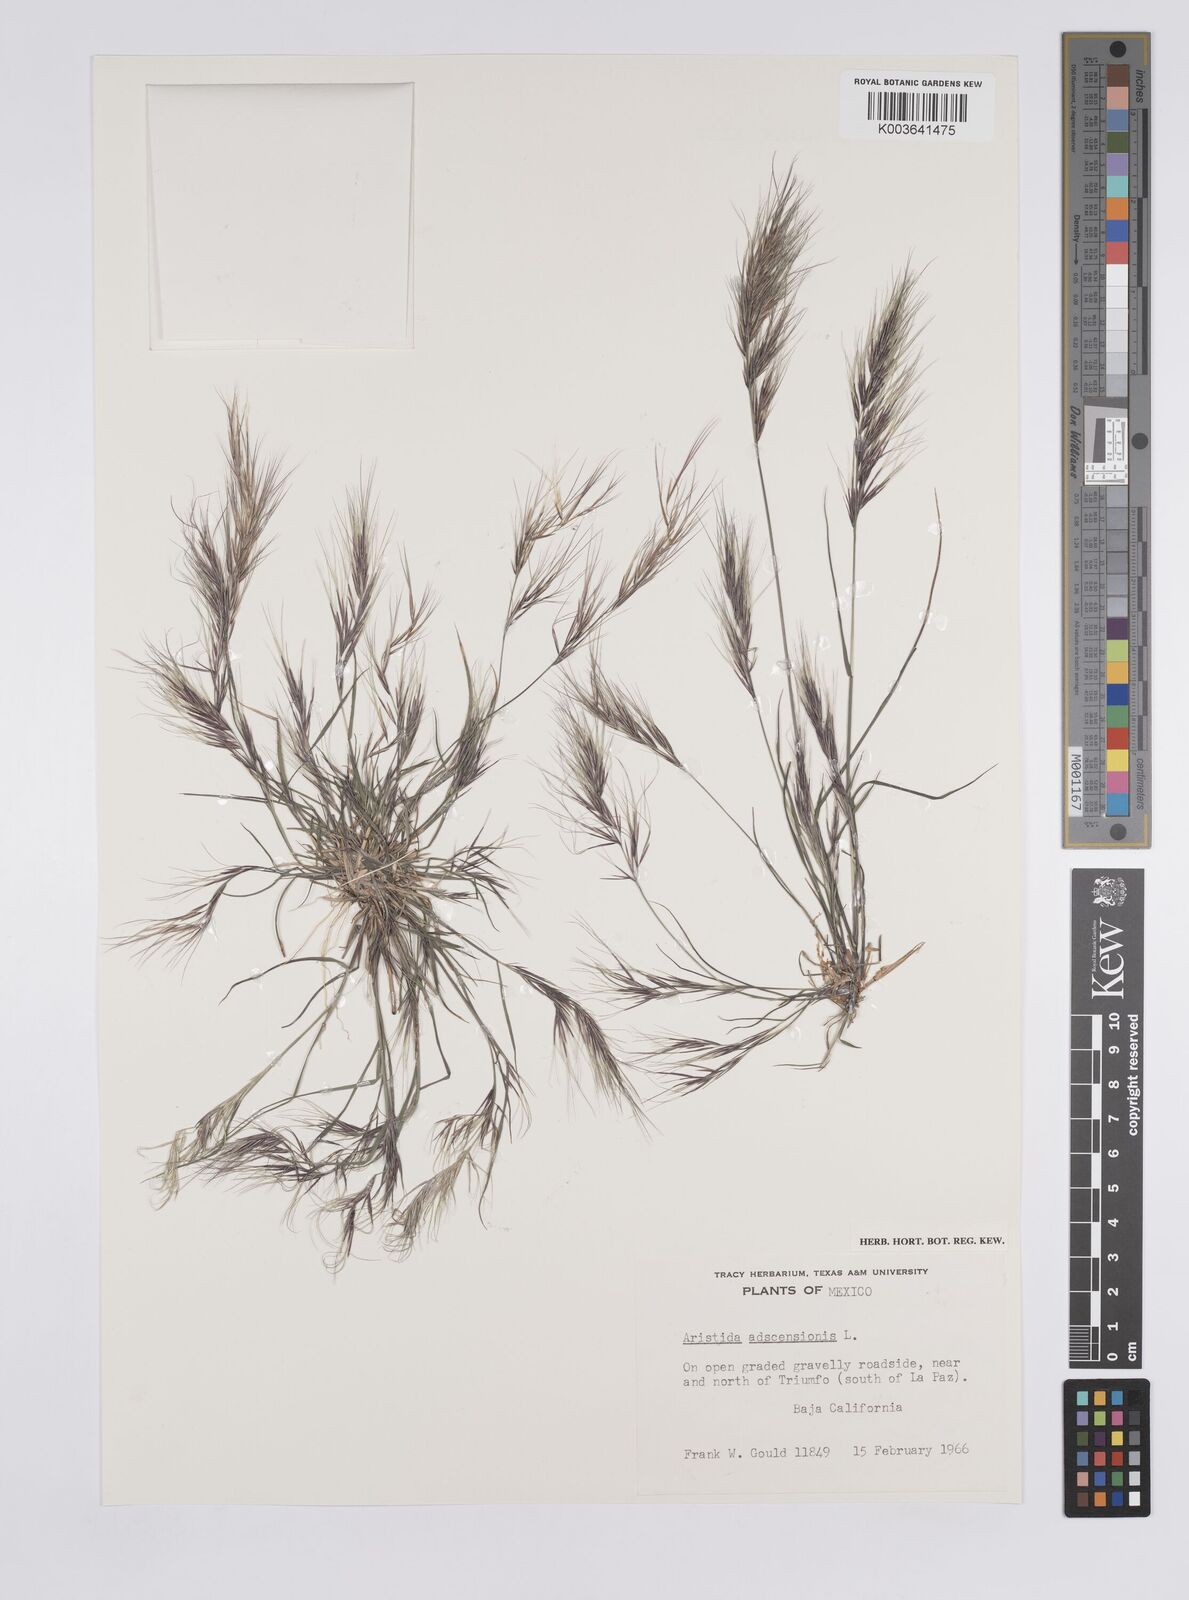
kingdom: Plantae
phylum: Tracheophyta
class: Liliopsida
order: Poales
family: Poaceae
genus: Aristida
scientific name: Aristida adscensionis
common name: Sixweeks threeawn
